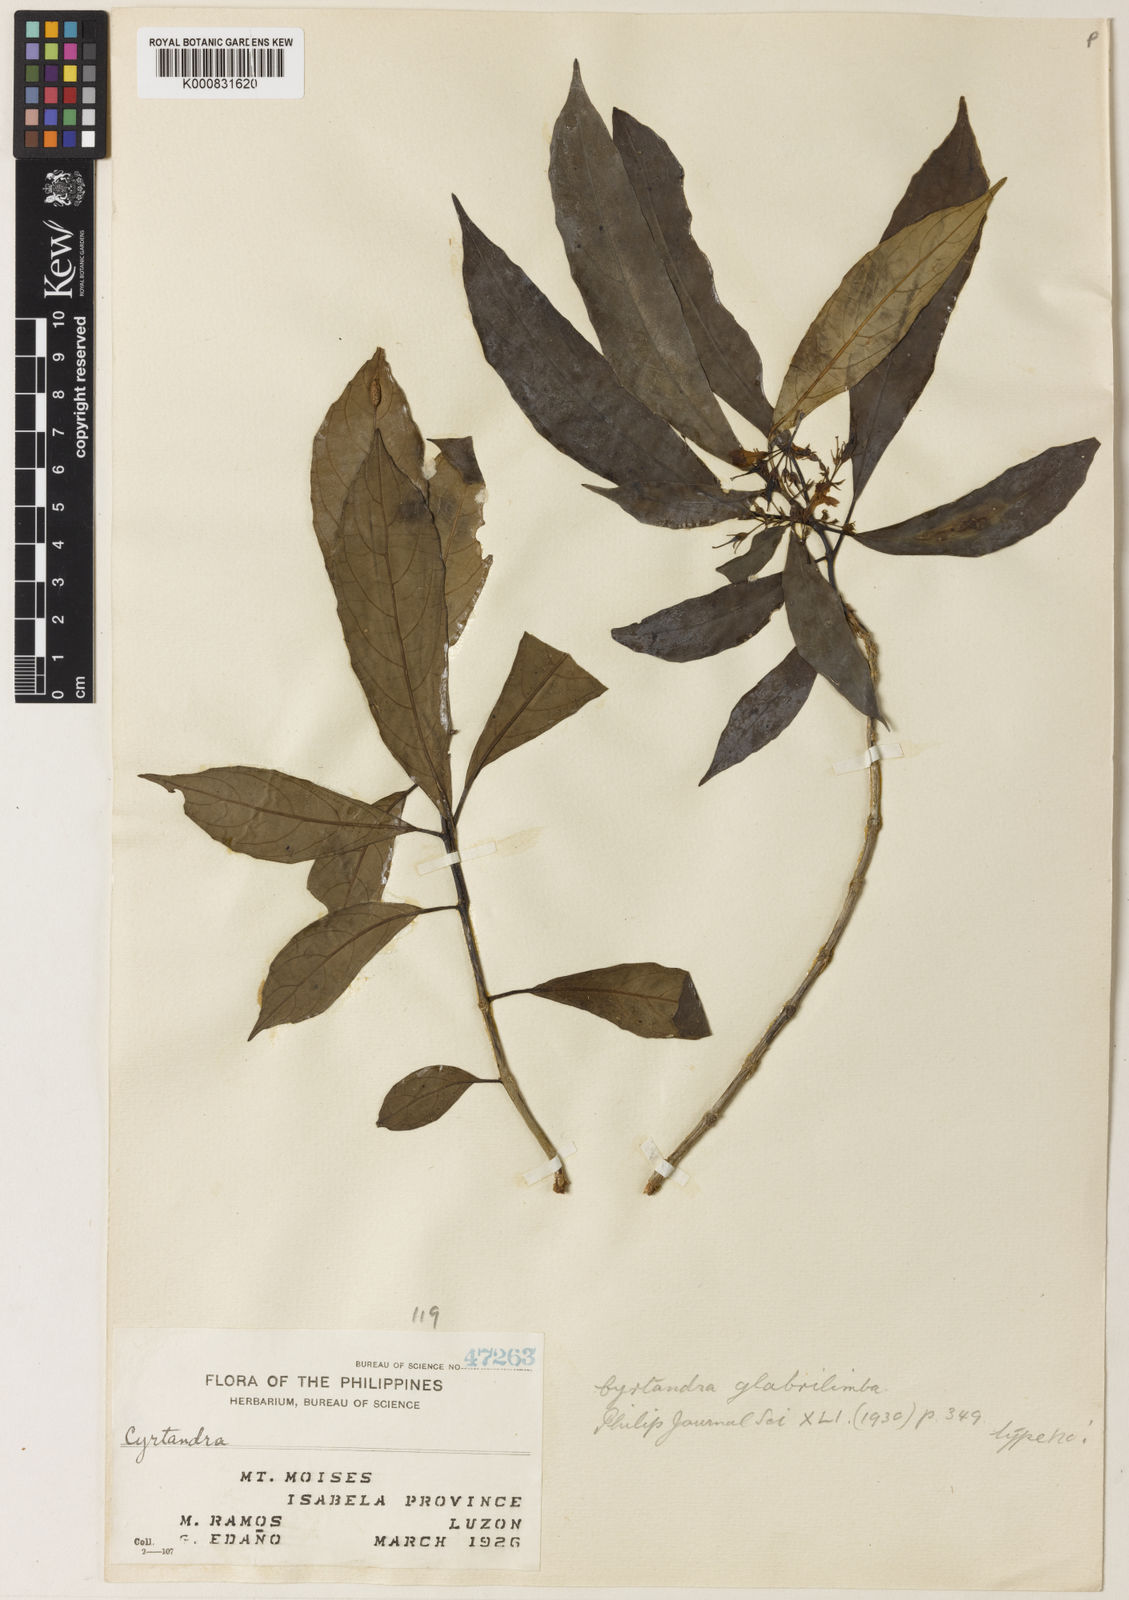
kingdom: Plantae
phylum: Tracheophyta
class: Magnoliopsida
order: Lamiales
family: Gesneriaceae
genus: Cyrtandra
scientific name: Cyrtandra glabrilimba
